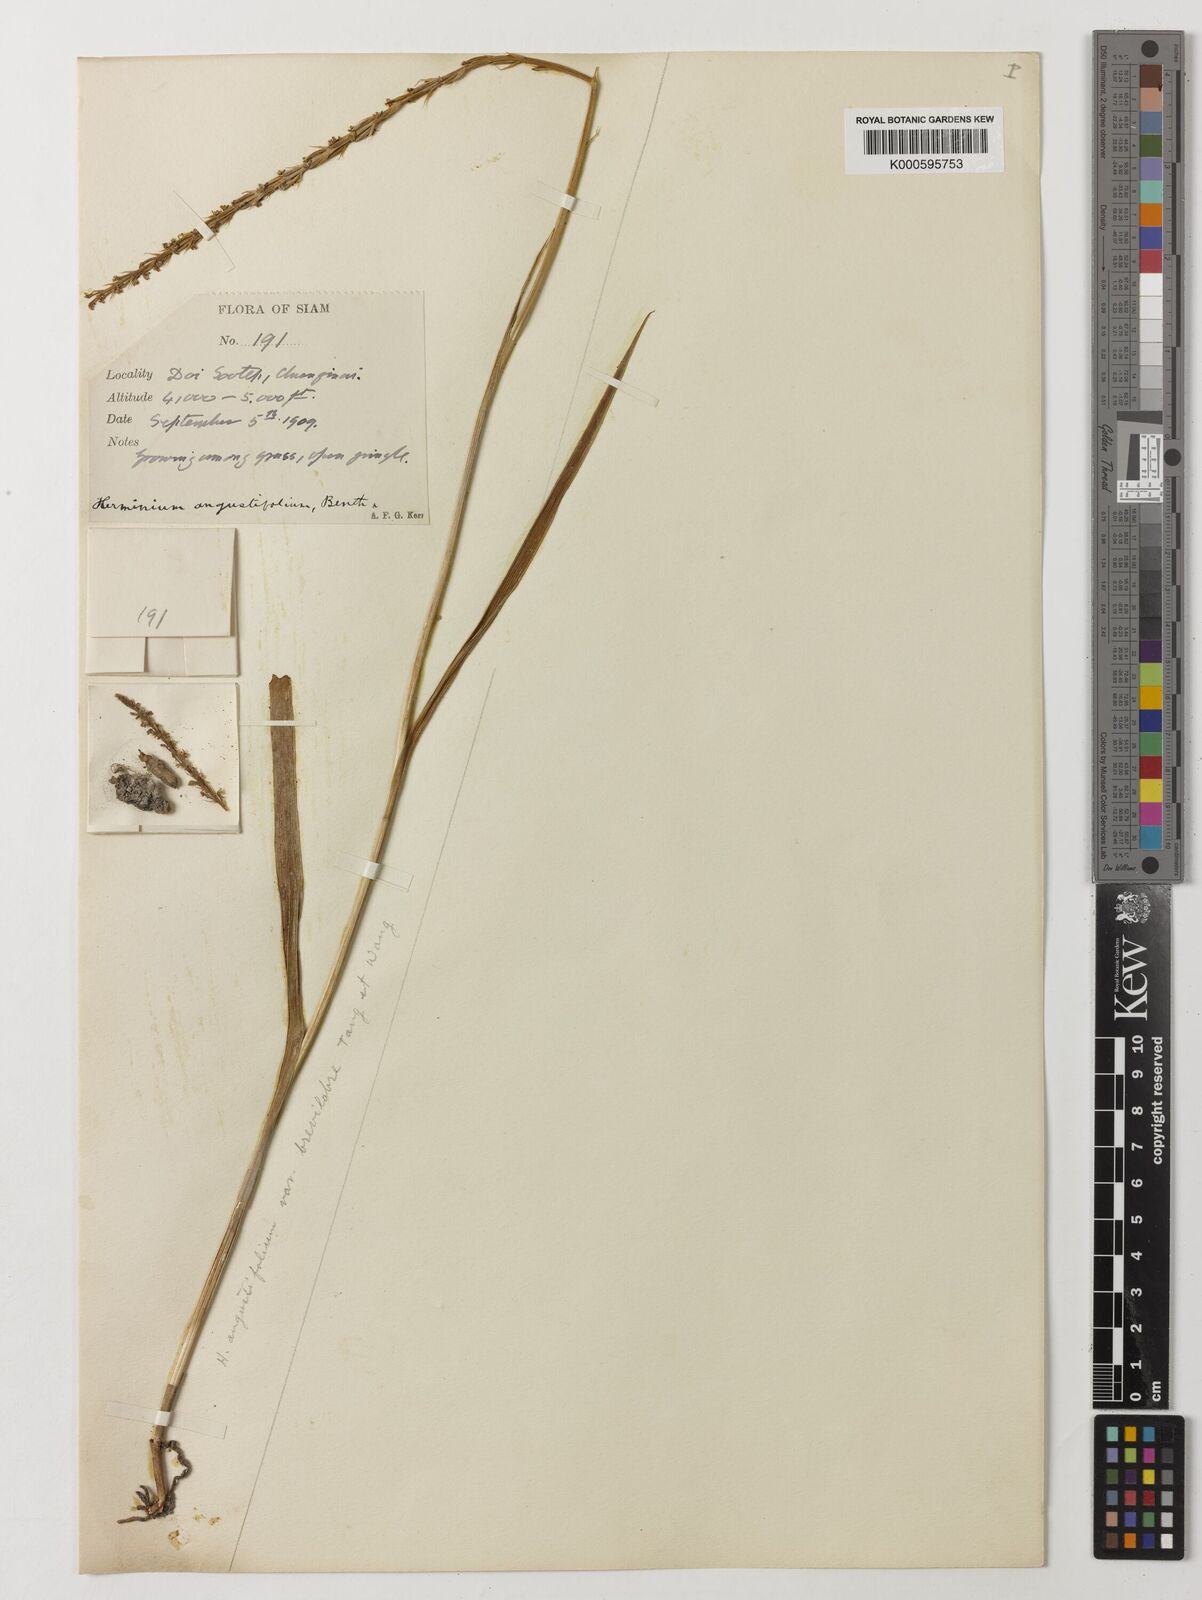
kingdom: Plantae
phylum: Tracheophyta
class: Liliopsida
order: Asparagales
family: Orchidaceae
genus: Herminium
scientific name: Herminium
